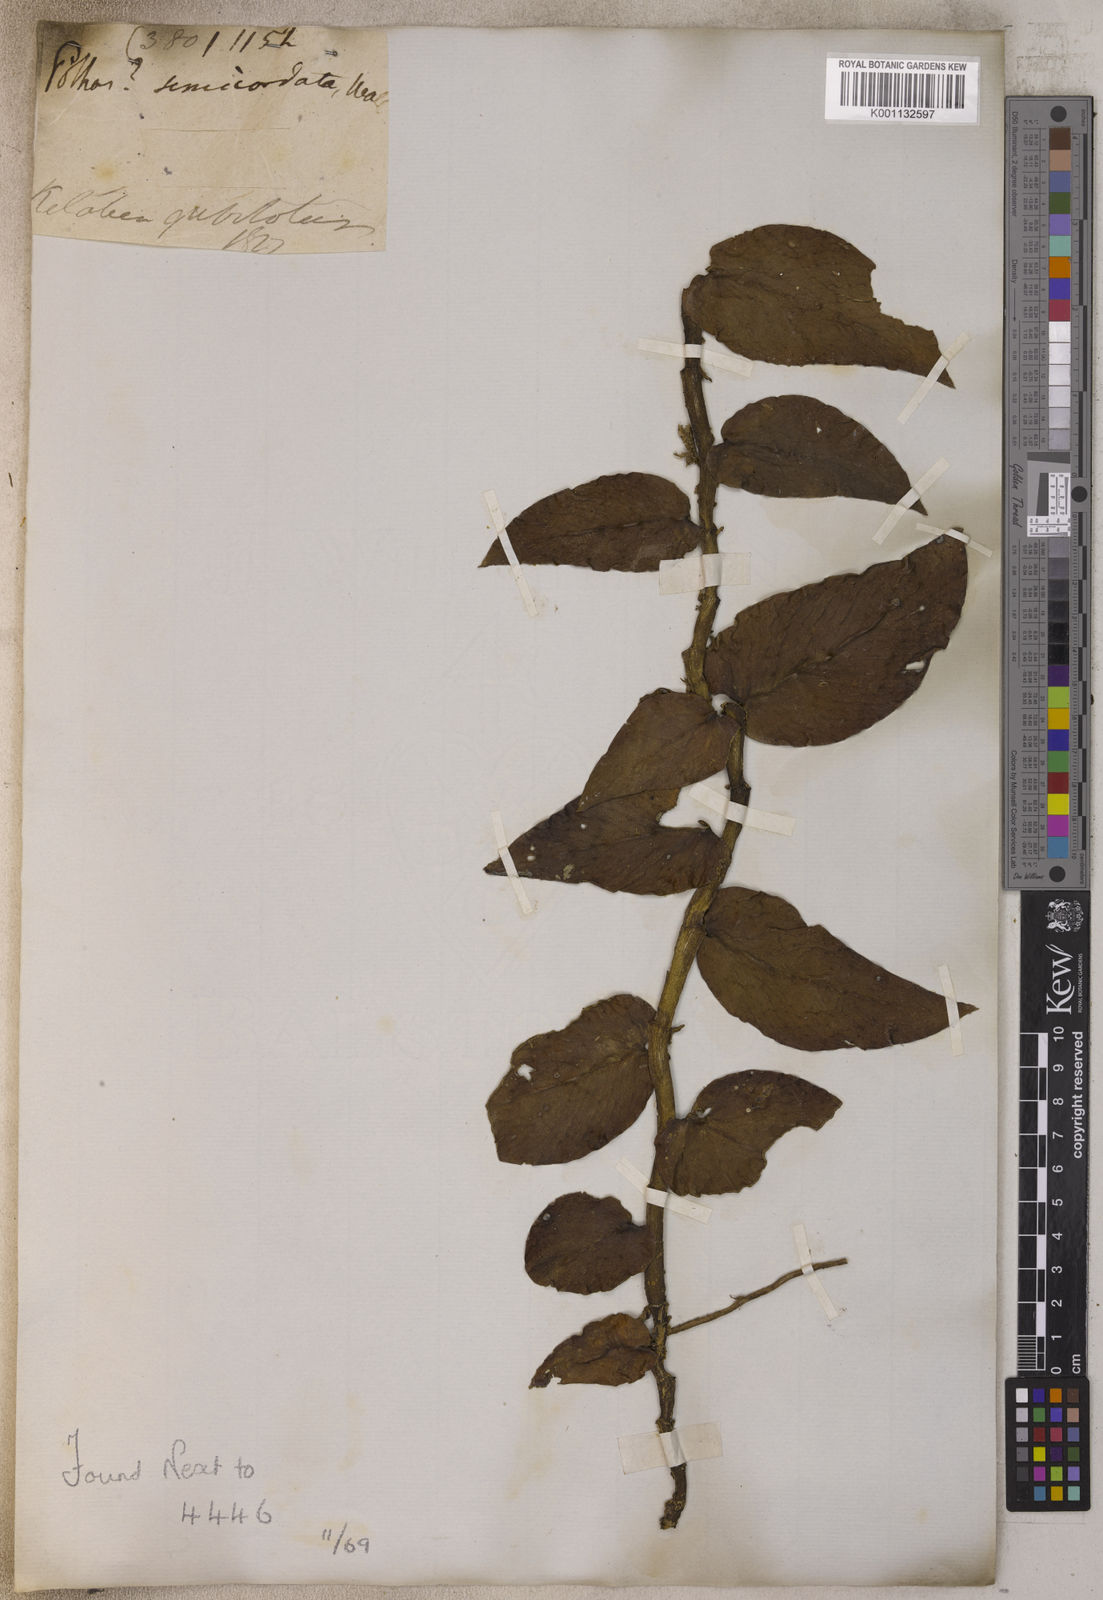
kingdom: Plantae
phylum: Tracheophyta
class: Liliopsida
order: Alismatales
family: Araceae
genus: Pothos
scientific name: Pothos
